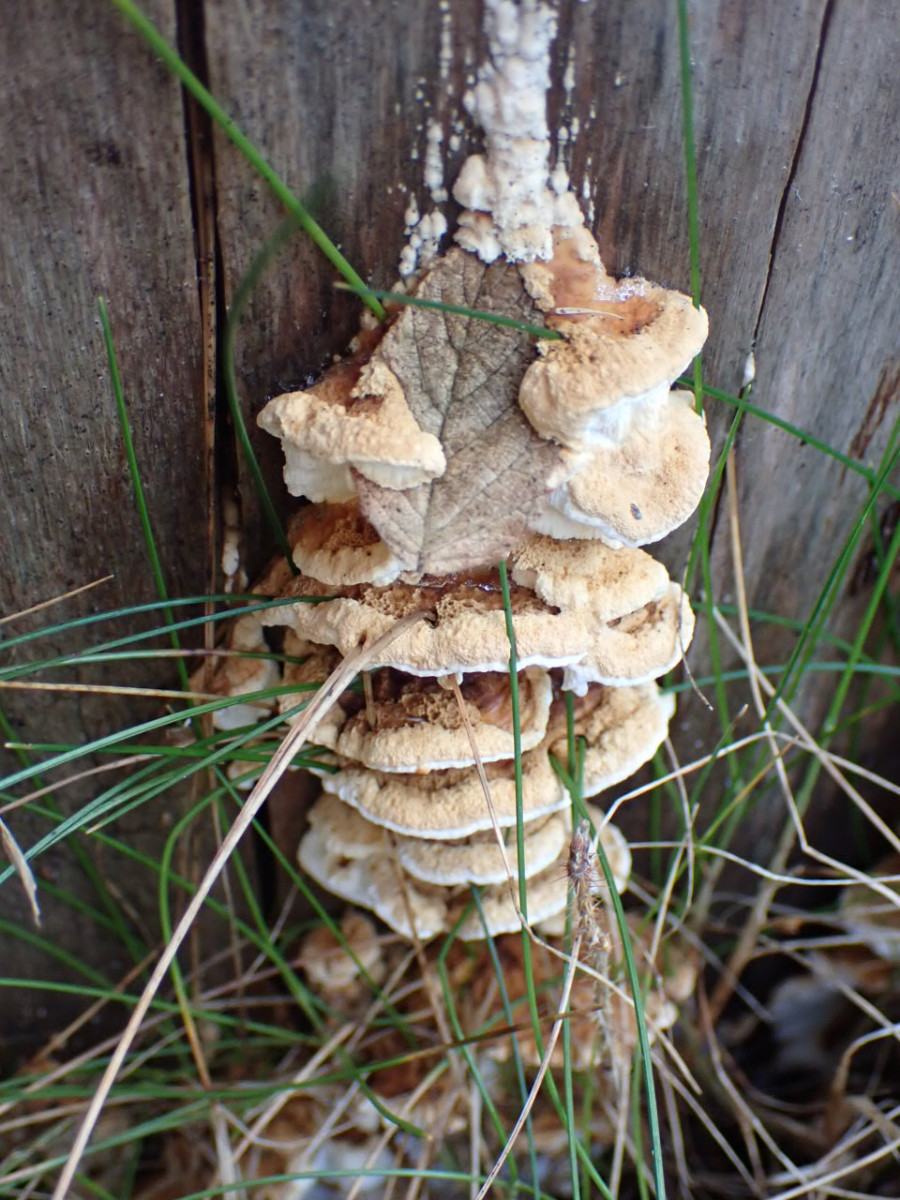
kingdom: Fungi
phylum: Basidiomycota
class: Agaricomycetes
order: Polyporales
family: Fomitopsidaceae
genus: Neoantrodia
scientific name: Neoantrodia serialis
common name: række-sejporesvamp
